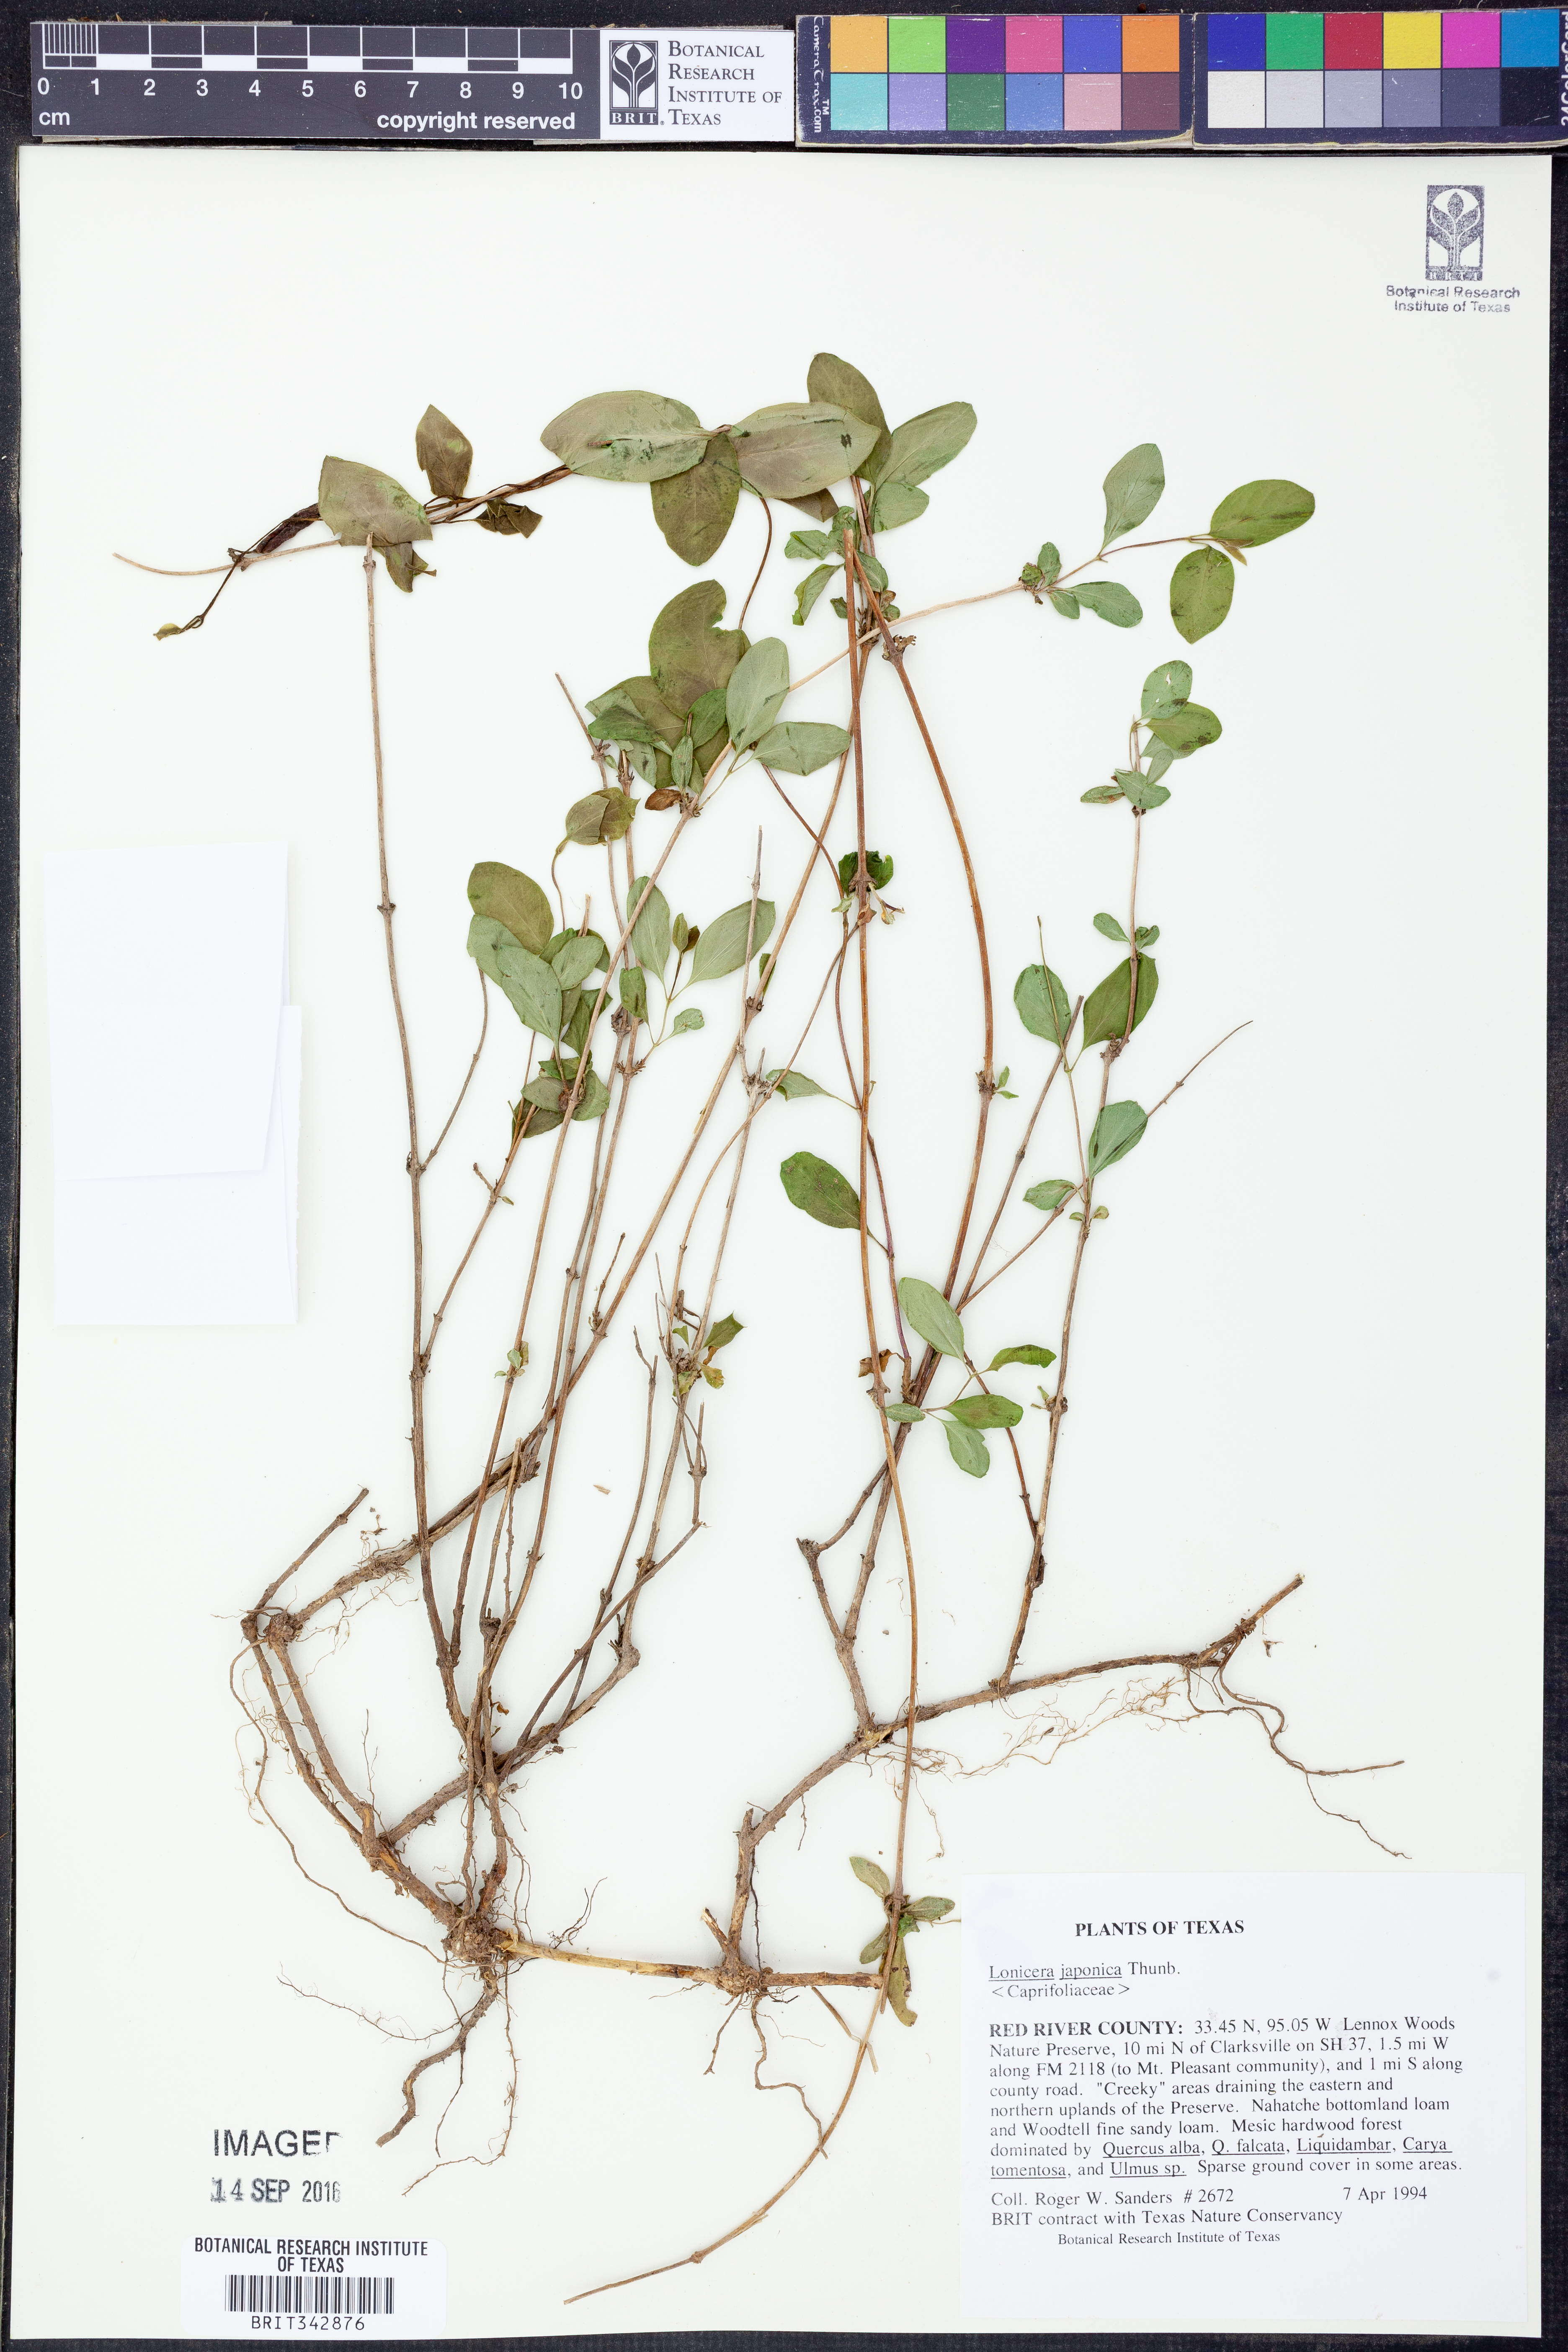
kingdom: Plantae
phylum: Tracheophyta
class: Magnoliopsida
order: Dipsacales
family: Caprifoliaceae
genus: Lonicera
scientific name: Lonicera japonica
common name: Japanese honeysuckle
